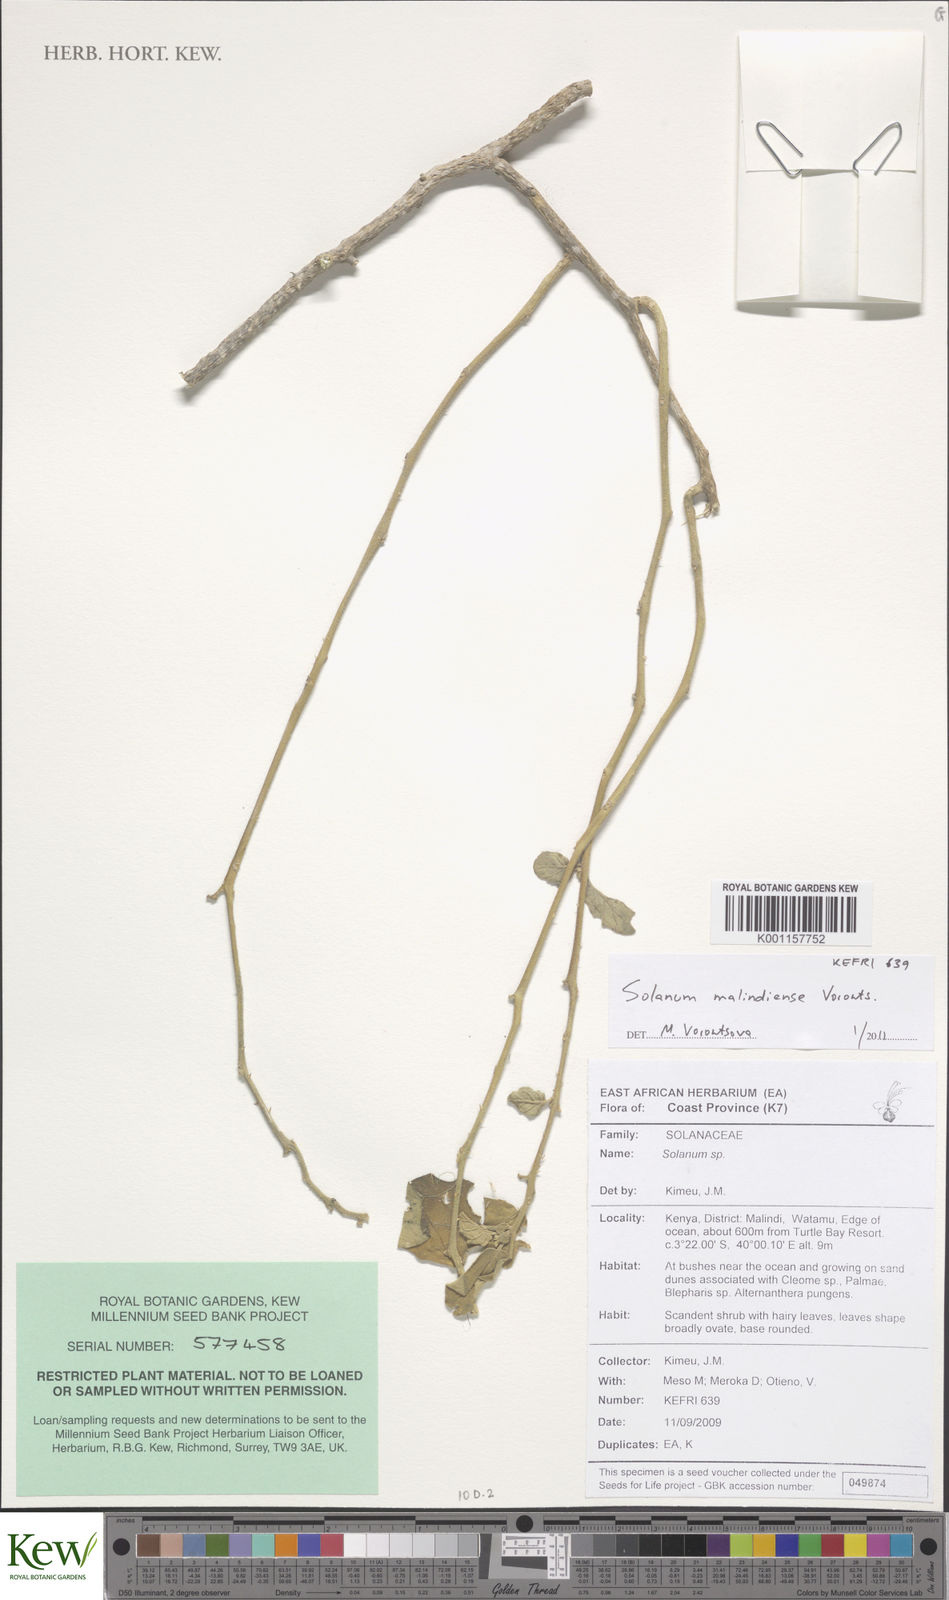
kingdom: Plantae
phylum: Tracheophyta
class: Magnoliopsida
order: Solanales
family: Solanaceae
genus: Solanum
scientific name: Solanum malindiense
